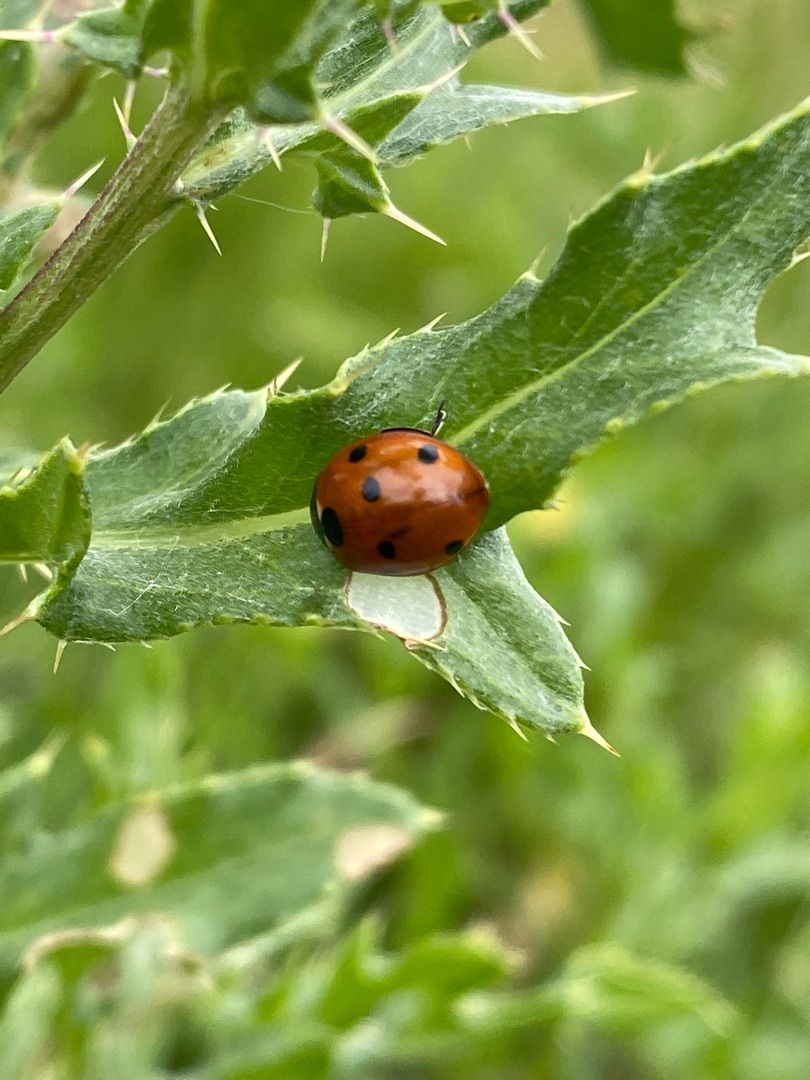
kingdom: Animalia
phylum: Arthropoda
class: Insecta
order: Coleoptera
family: Coccinellidae
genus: Coccinella
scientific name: Coccinella septempunctata
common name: Syvplettet mariehøne
